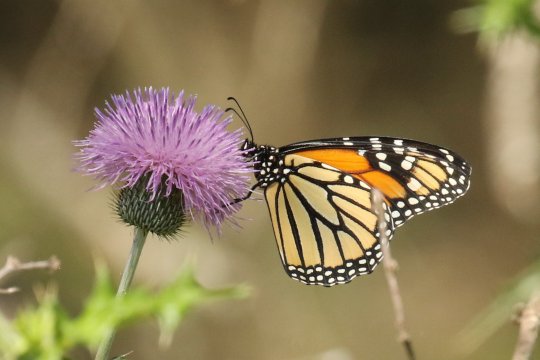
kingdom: Animalia
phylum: Arthropoda
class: Insecta
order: Lepidoptera
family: Nymphalidae
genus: Danaus
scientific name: Danaus plexippus
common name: Monarch
